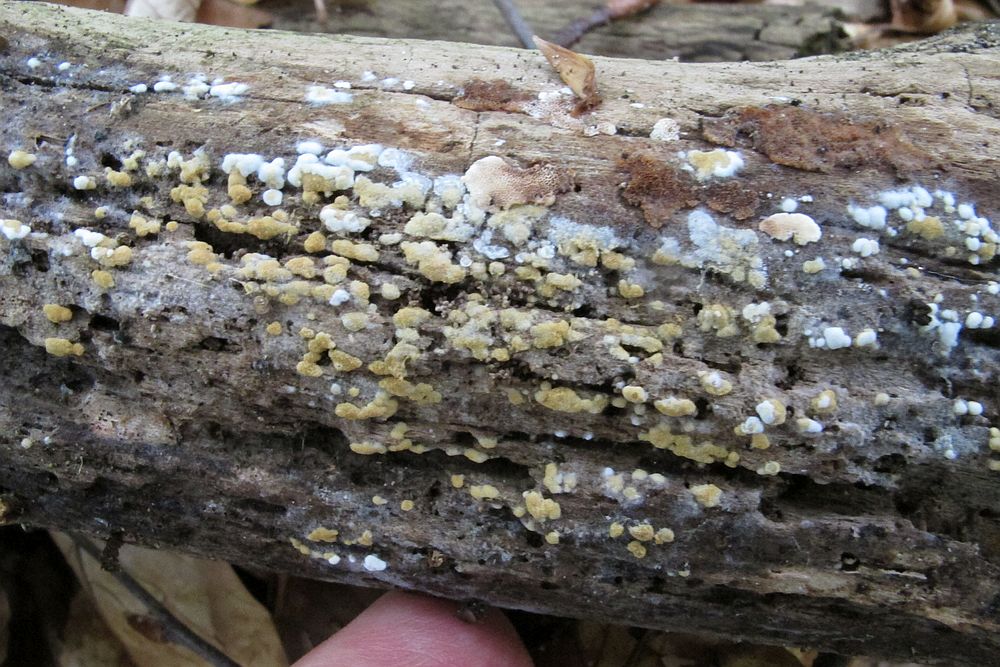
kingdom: Fungi
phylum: Basidiomycota
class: Agaricomycetes
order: Cantharellales
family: Botryobasidiaceae
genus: Botryobasidium
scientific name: Botryobasidium aureum
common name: gylden spindhinde
